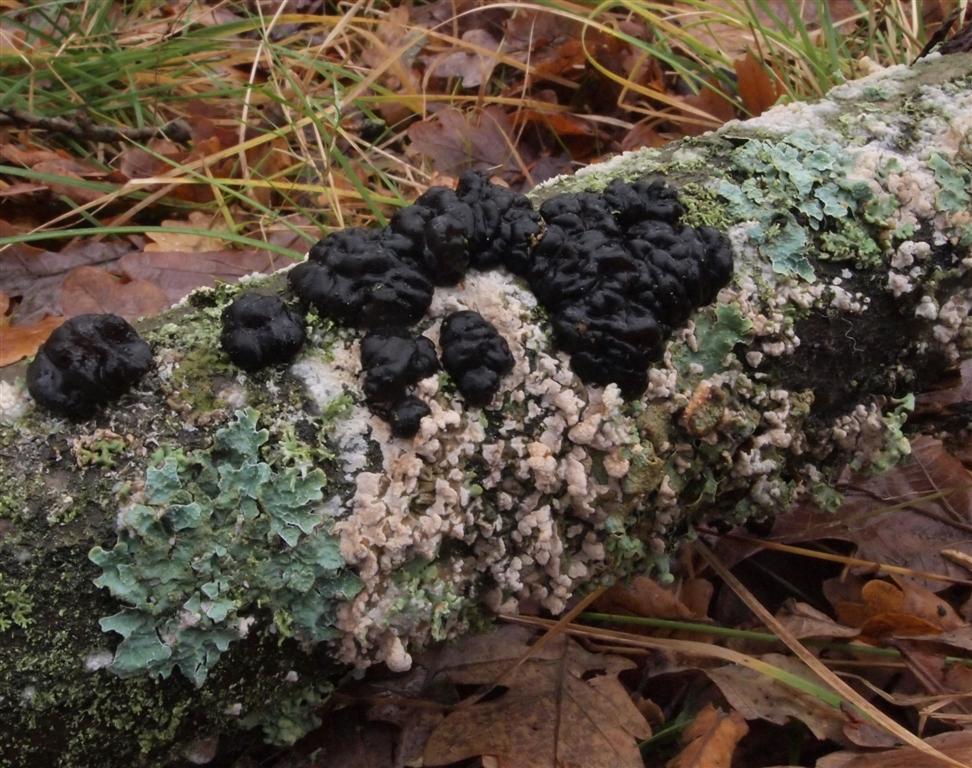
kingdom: Fungi
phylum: Basidiomycota
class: Agaricomycetes
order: Auriculariales
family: Auriculariaceae
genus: Exidia
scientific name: Exidia nigricans
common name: almindelig bævretop
